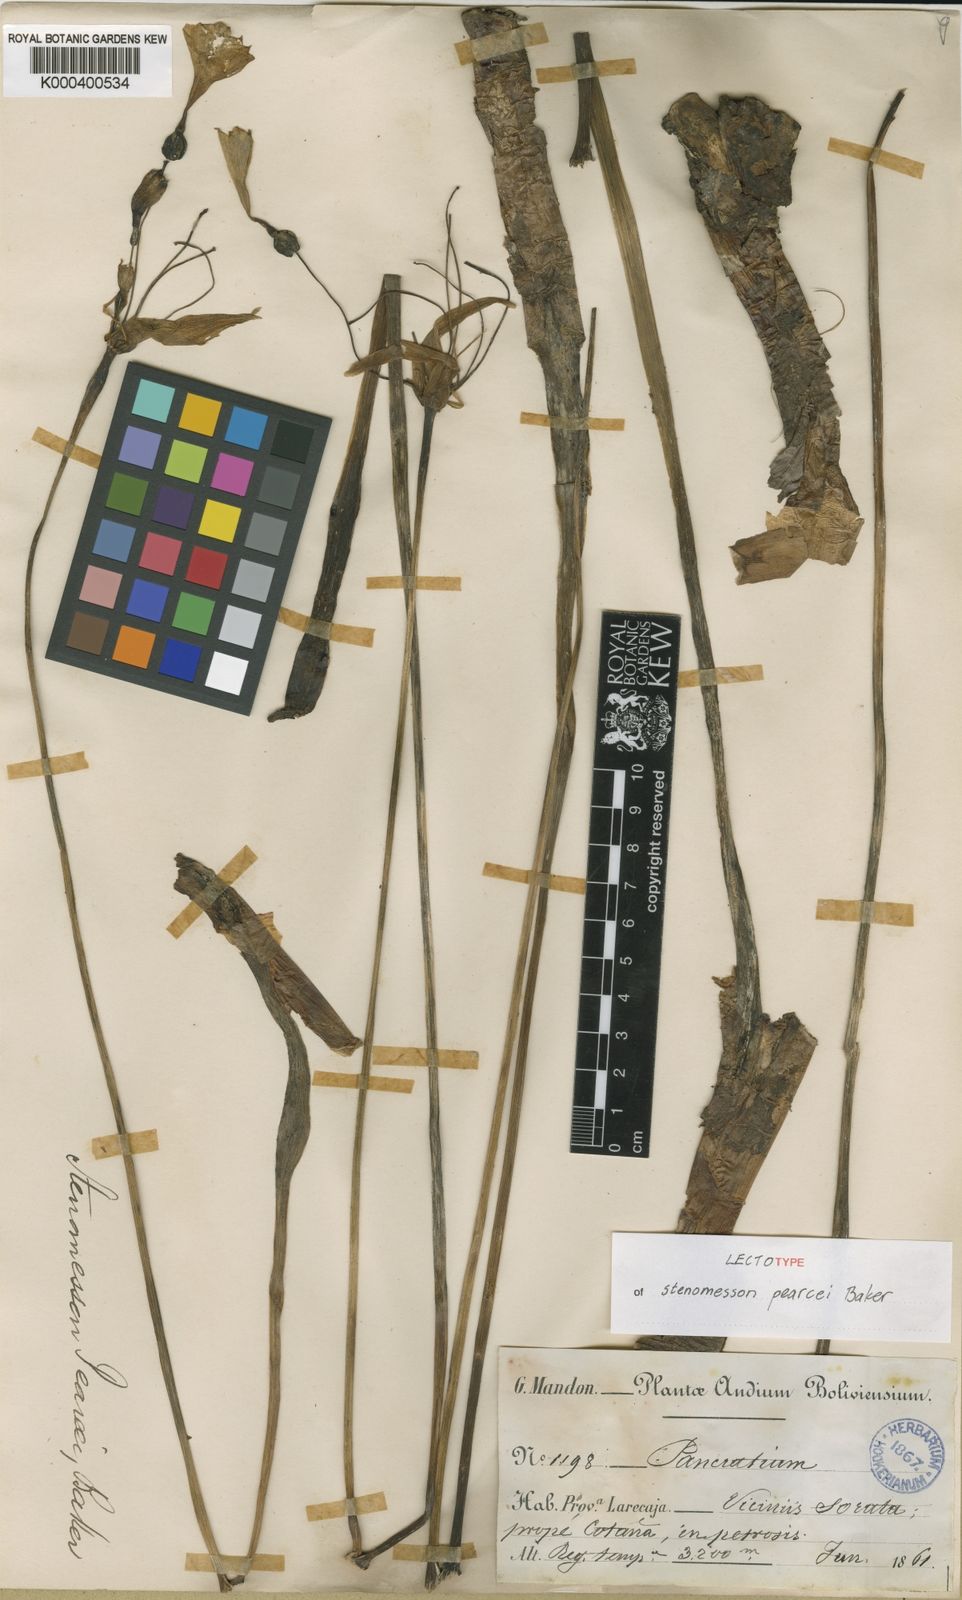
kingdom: Plantae
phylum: Tracheophyta
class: Liliopsida
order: Asparagales
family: Amaryllidaceae
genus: Stenomesson
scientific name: Stenomesson pearcei
